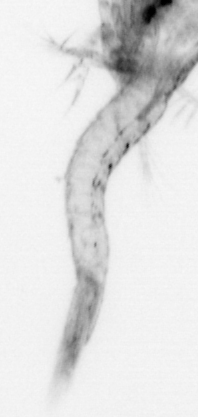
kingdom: Animalia
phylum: Arthropoda
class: Malacostraca
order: Decapoda
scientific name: Decapoda
